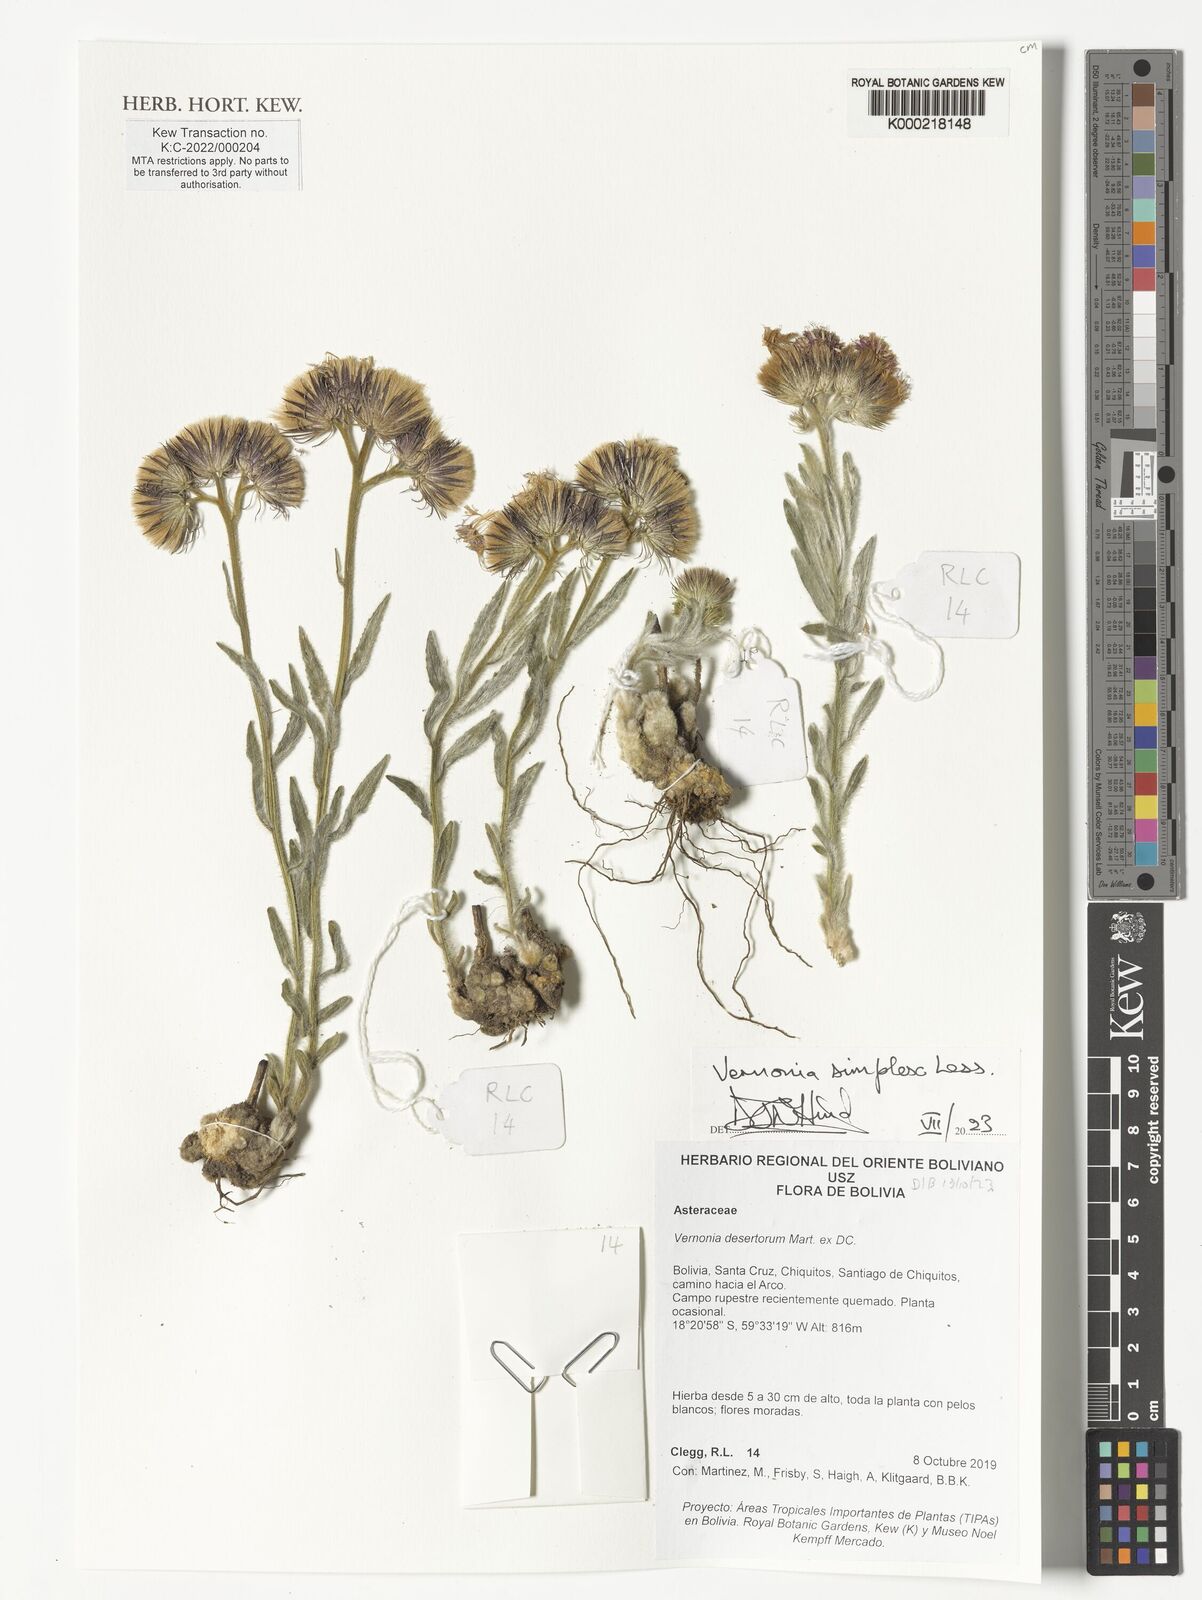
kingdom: Plantae
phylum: Tracheophyta
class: Magnoliopsida
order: Asterales
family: Asteraceae
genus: Chrysolaena
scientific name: Chrysolaena simplex
